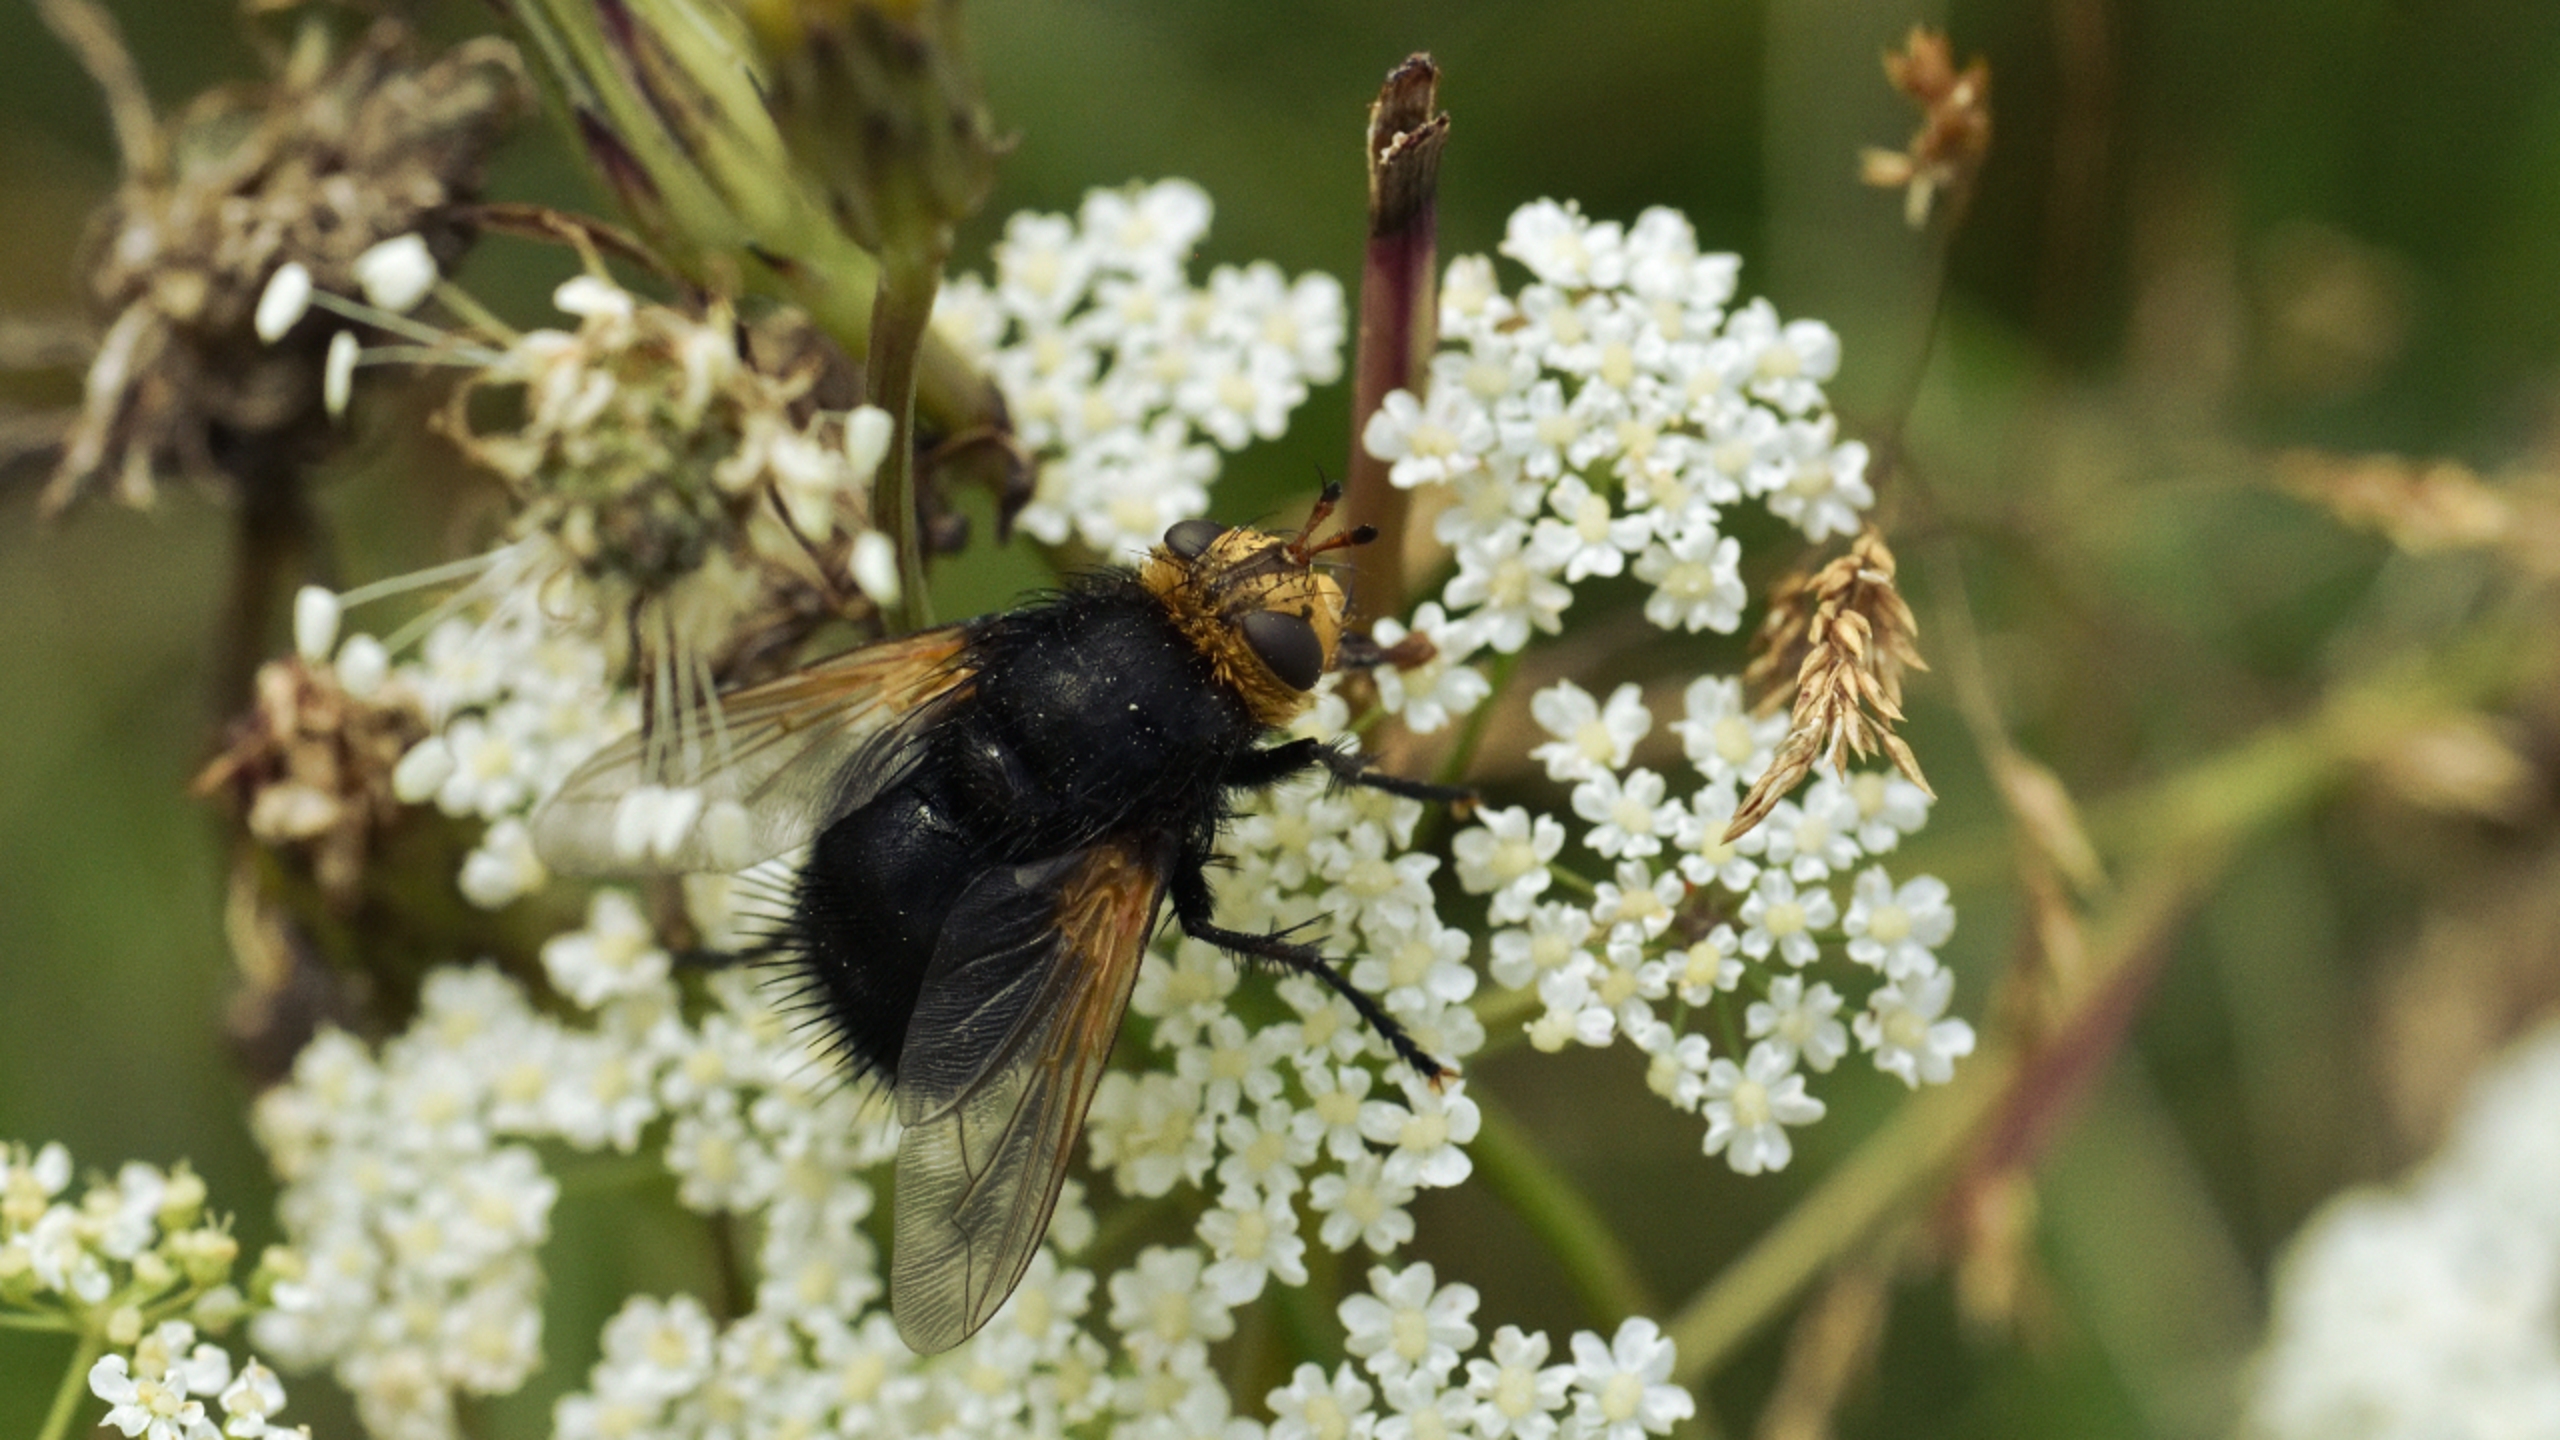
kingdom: Animalia
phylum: Arthropoda
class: Insecta
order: Diptera
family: Tachinidae
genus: Tachina
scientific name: Tachina grossa
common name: Kæmpefluen Harald
